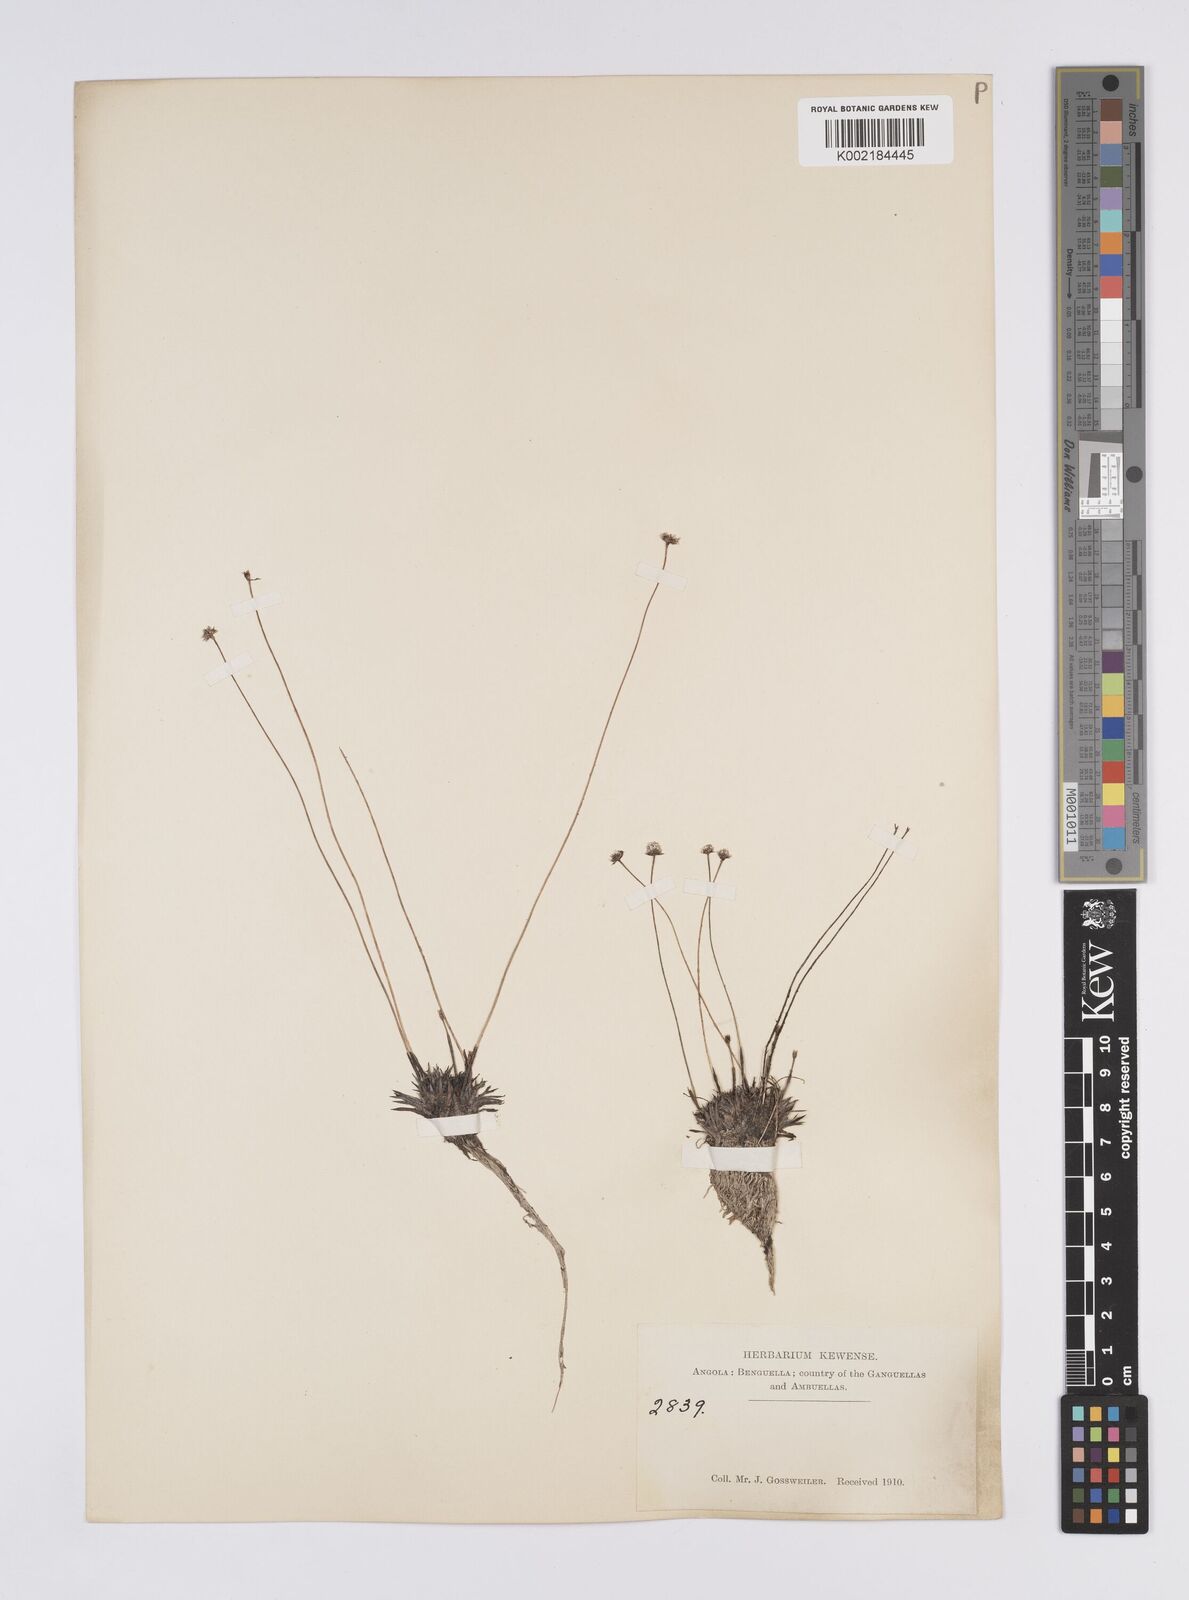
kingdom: Plantae
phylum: Tracheophyta
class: Liliopsida
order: Poales
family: Eriocaulaceae
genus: Eriocaulon
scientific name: Eriocaulon
